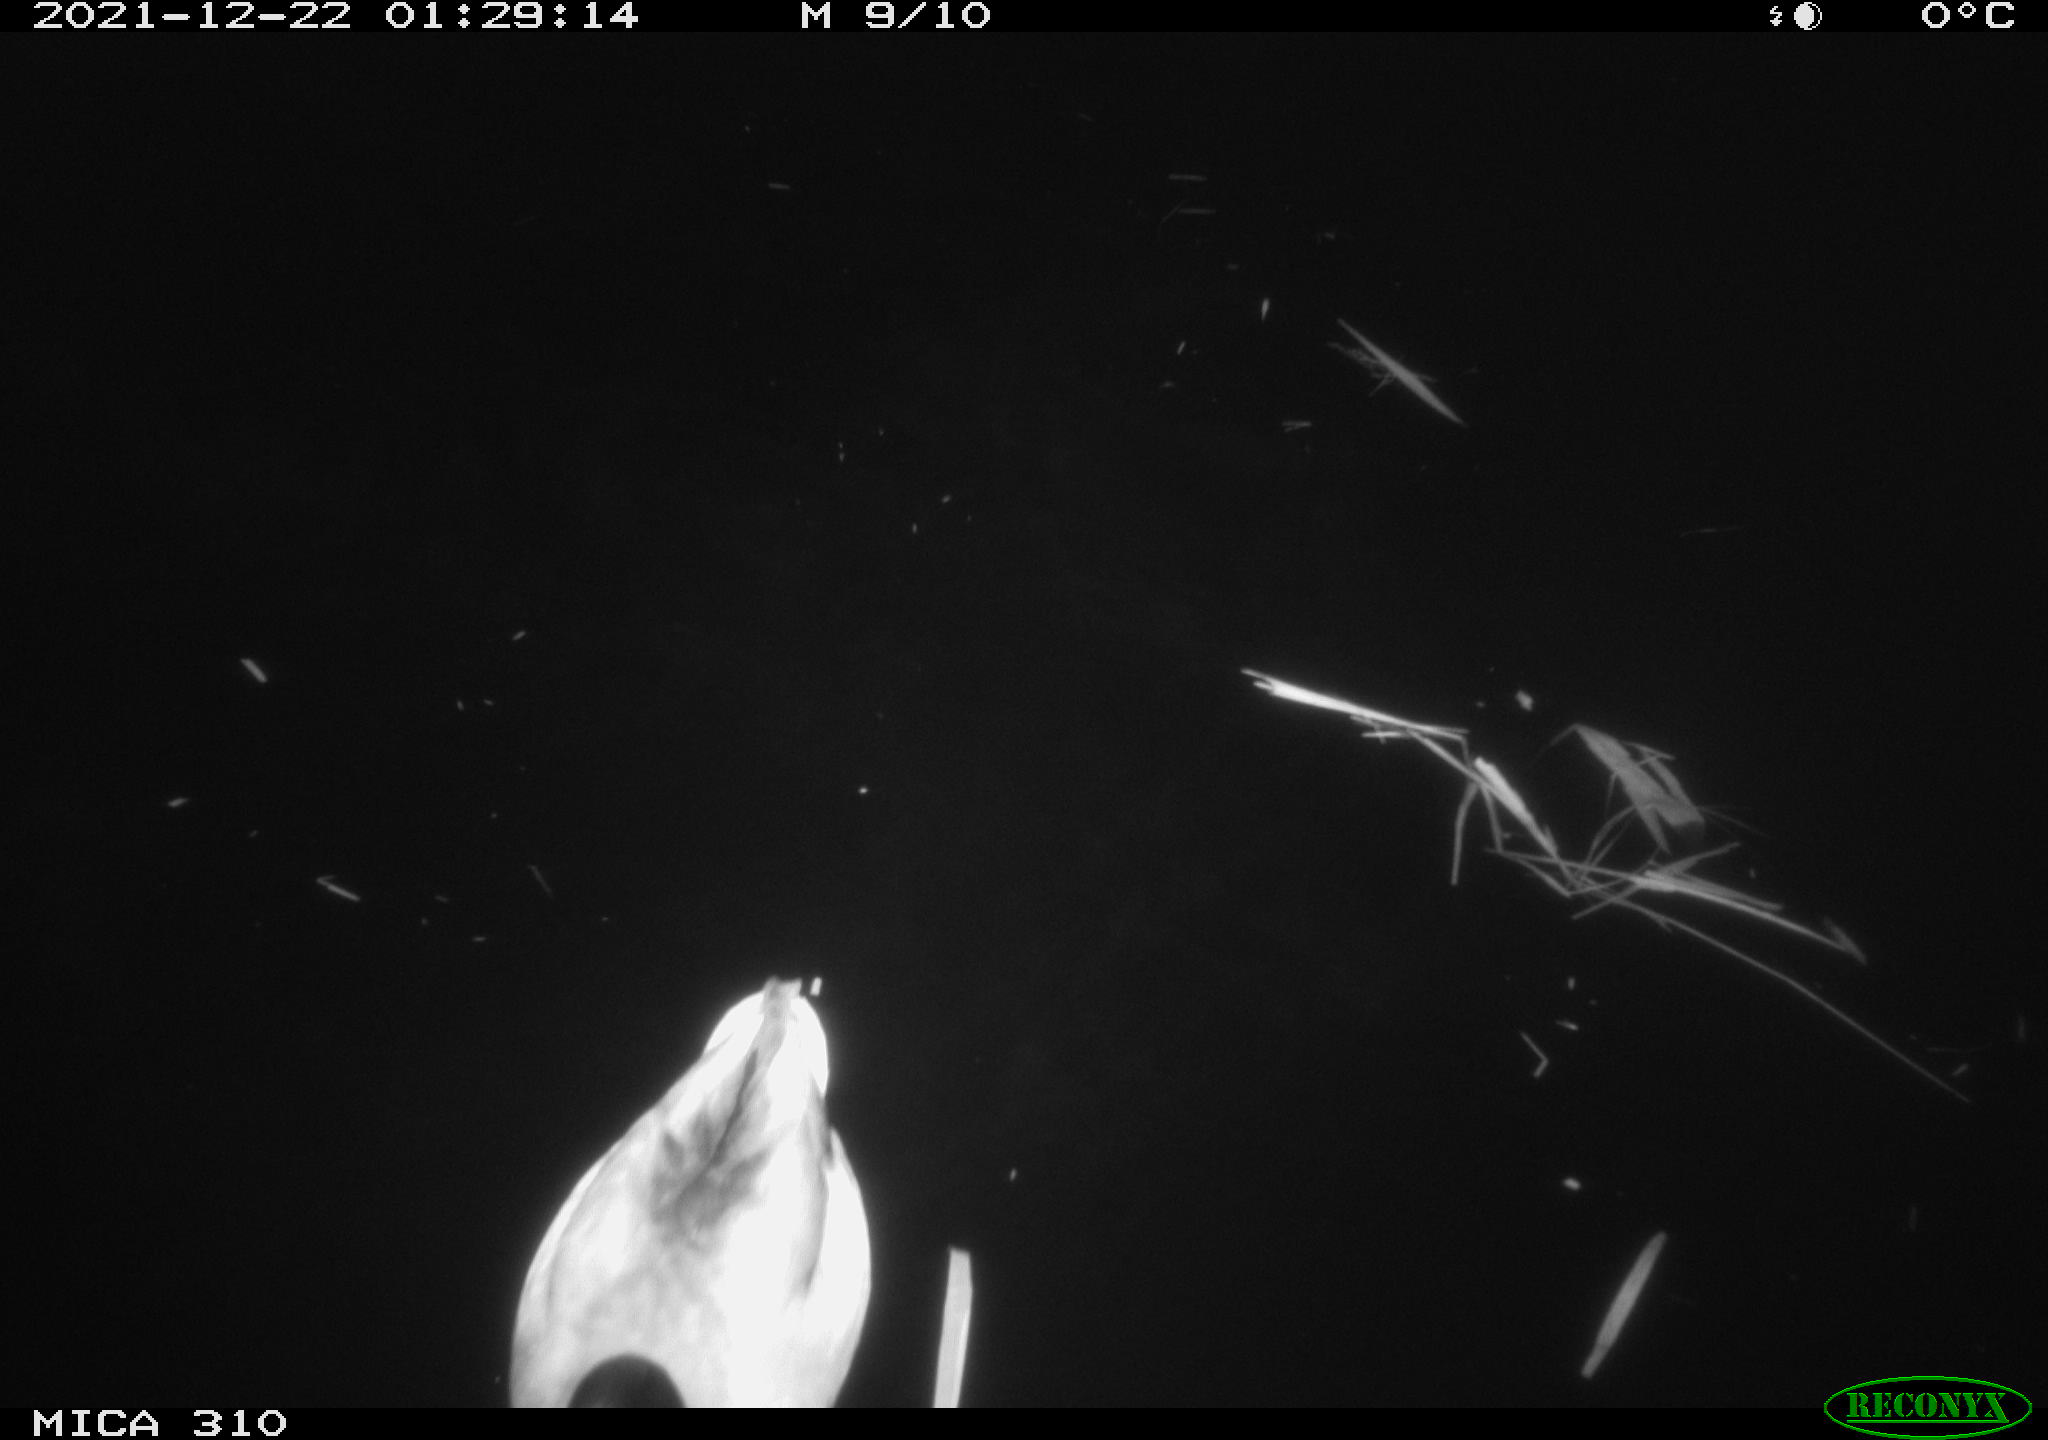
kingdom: Animalia
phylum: Chordata
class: Aves
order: Anseriformes
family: Anatidae
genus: Anas
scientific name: Anas platyrhynchos
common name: Mallard
